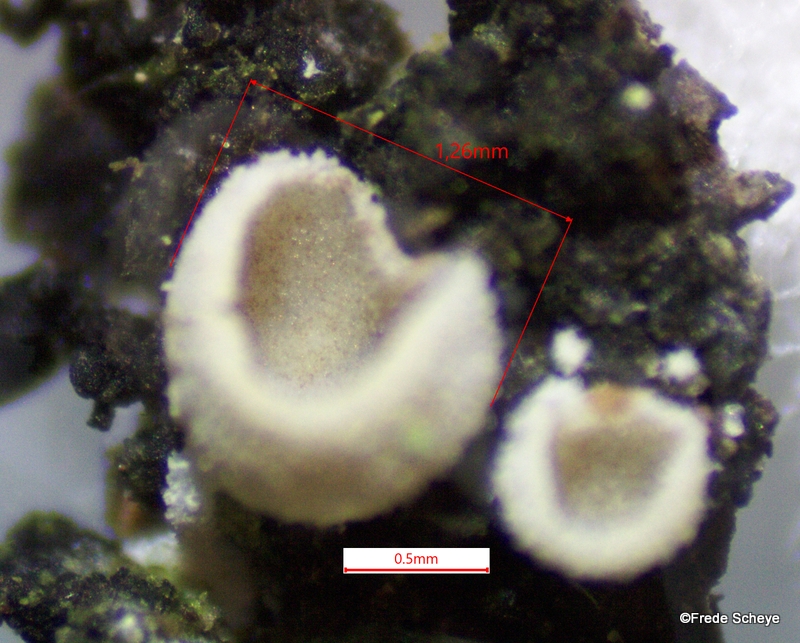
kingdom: Fungi
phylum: Basidiomycota
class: Agaricomycetes
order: Agaricales
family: Chromocyphellaceae
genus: Chromocyphella
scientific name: Chromocyphella muscicola
